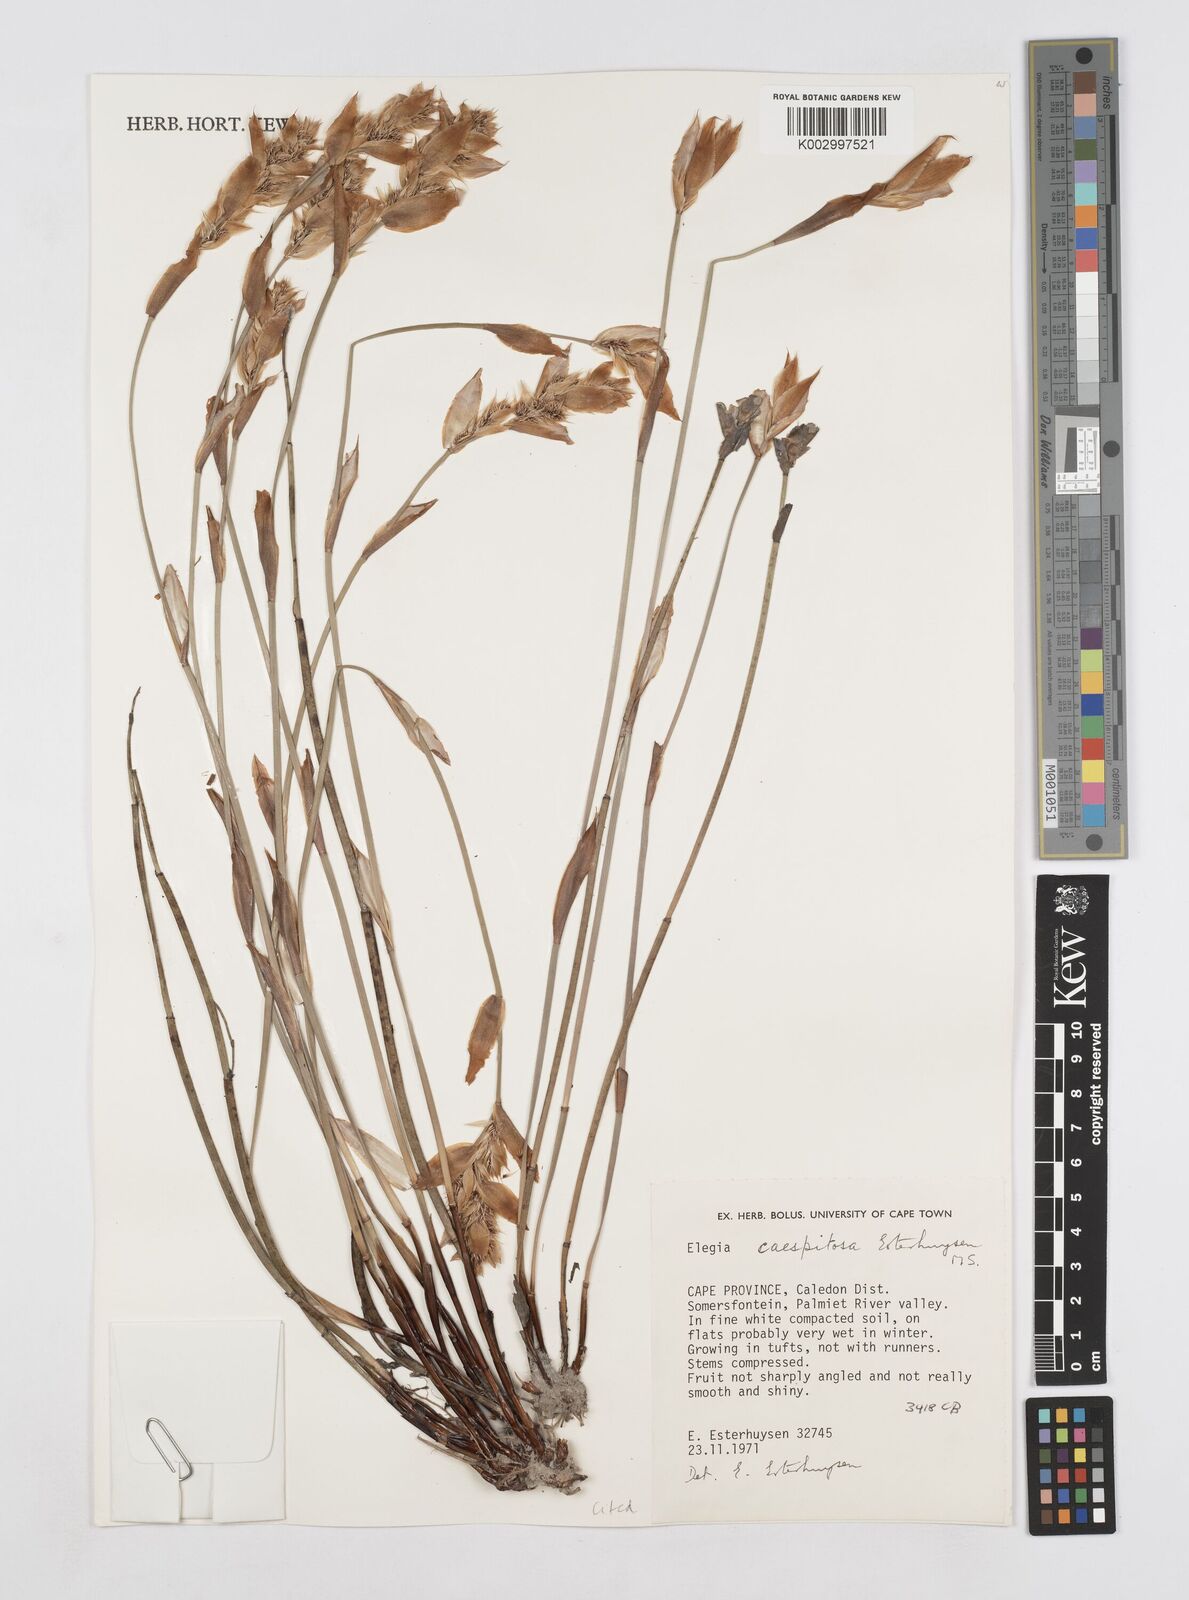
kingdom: Plantae
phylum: Tracheophyta
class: Liliopsida
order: Poales
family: Restionaceae
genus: Elegia
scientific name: Elegia caespitosa
